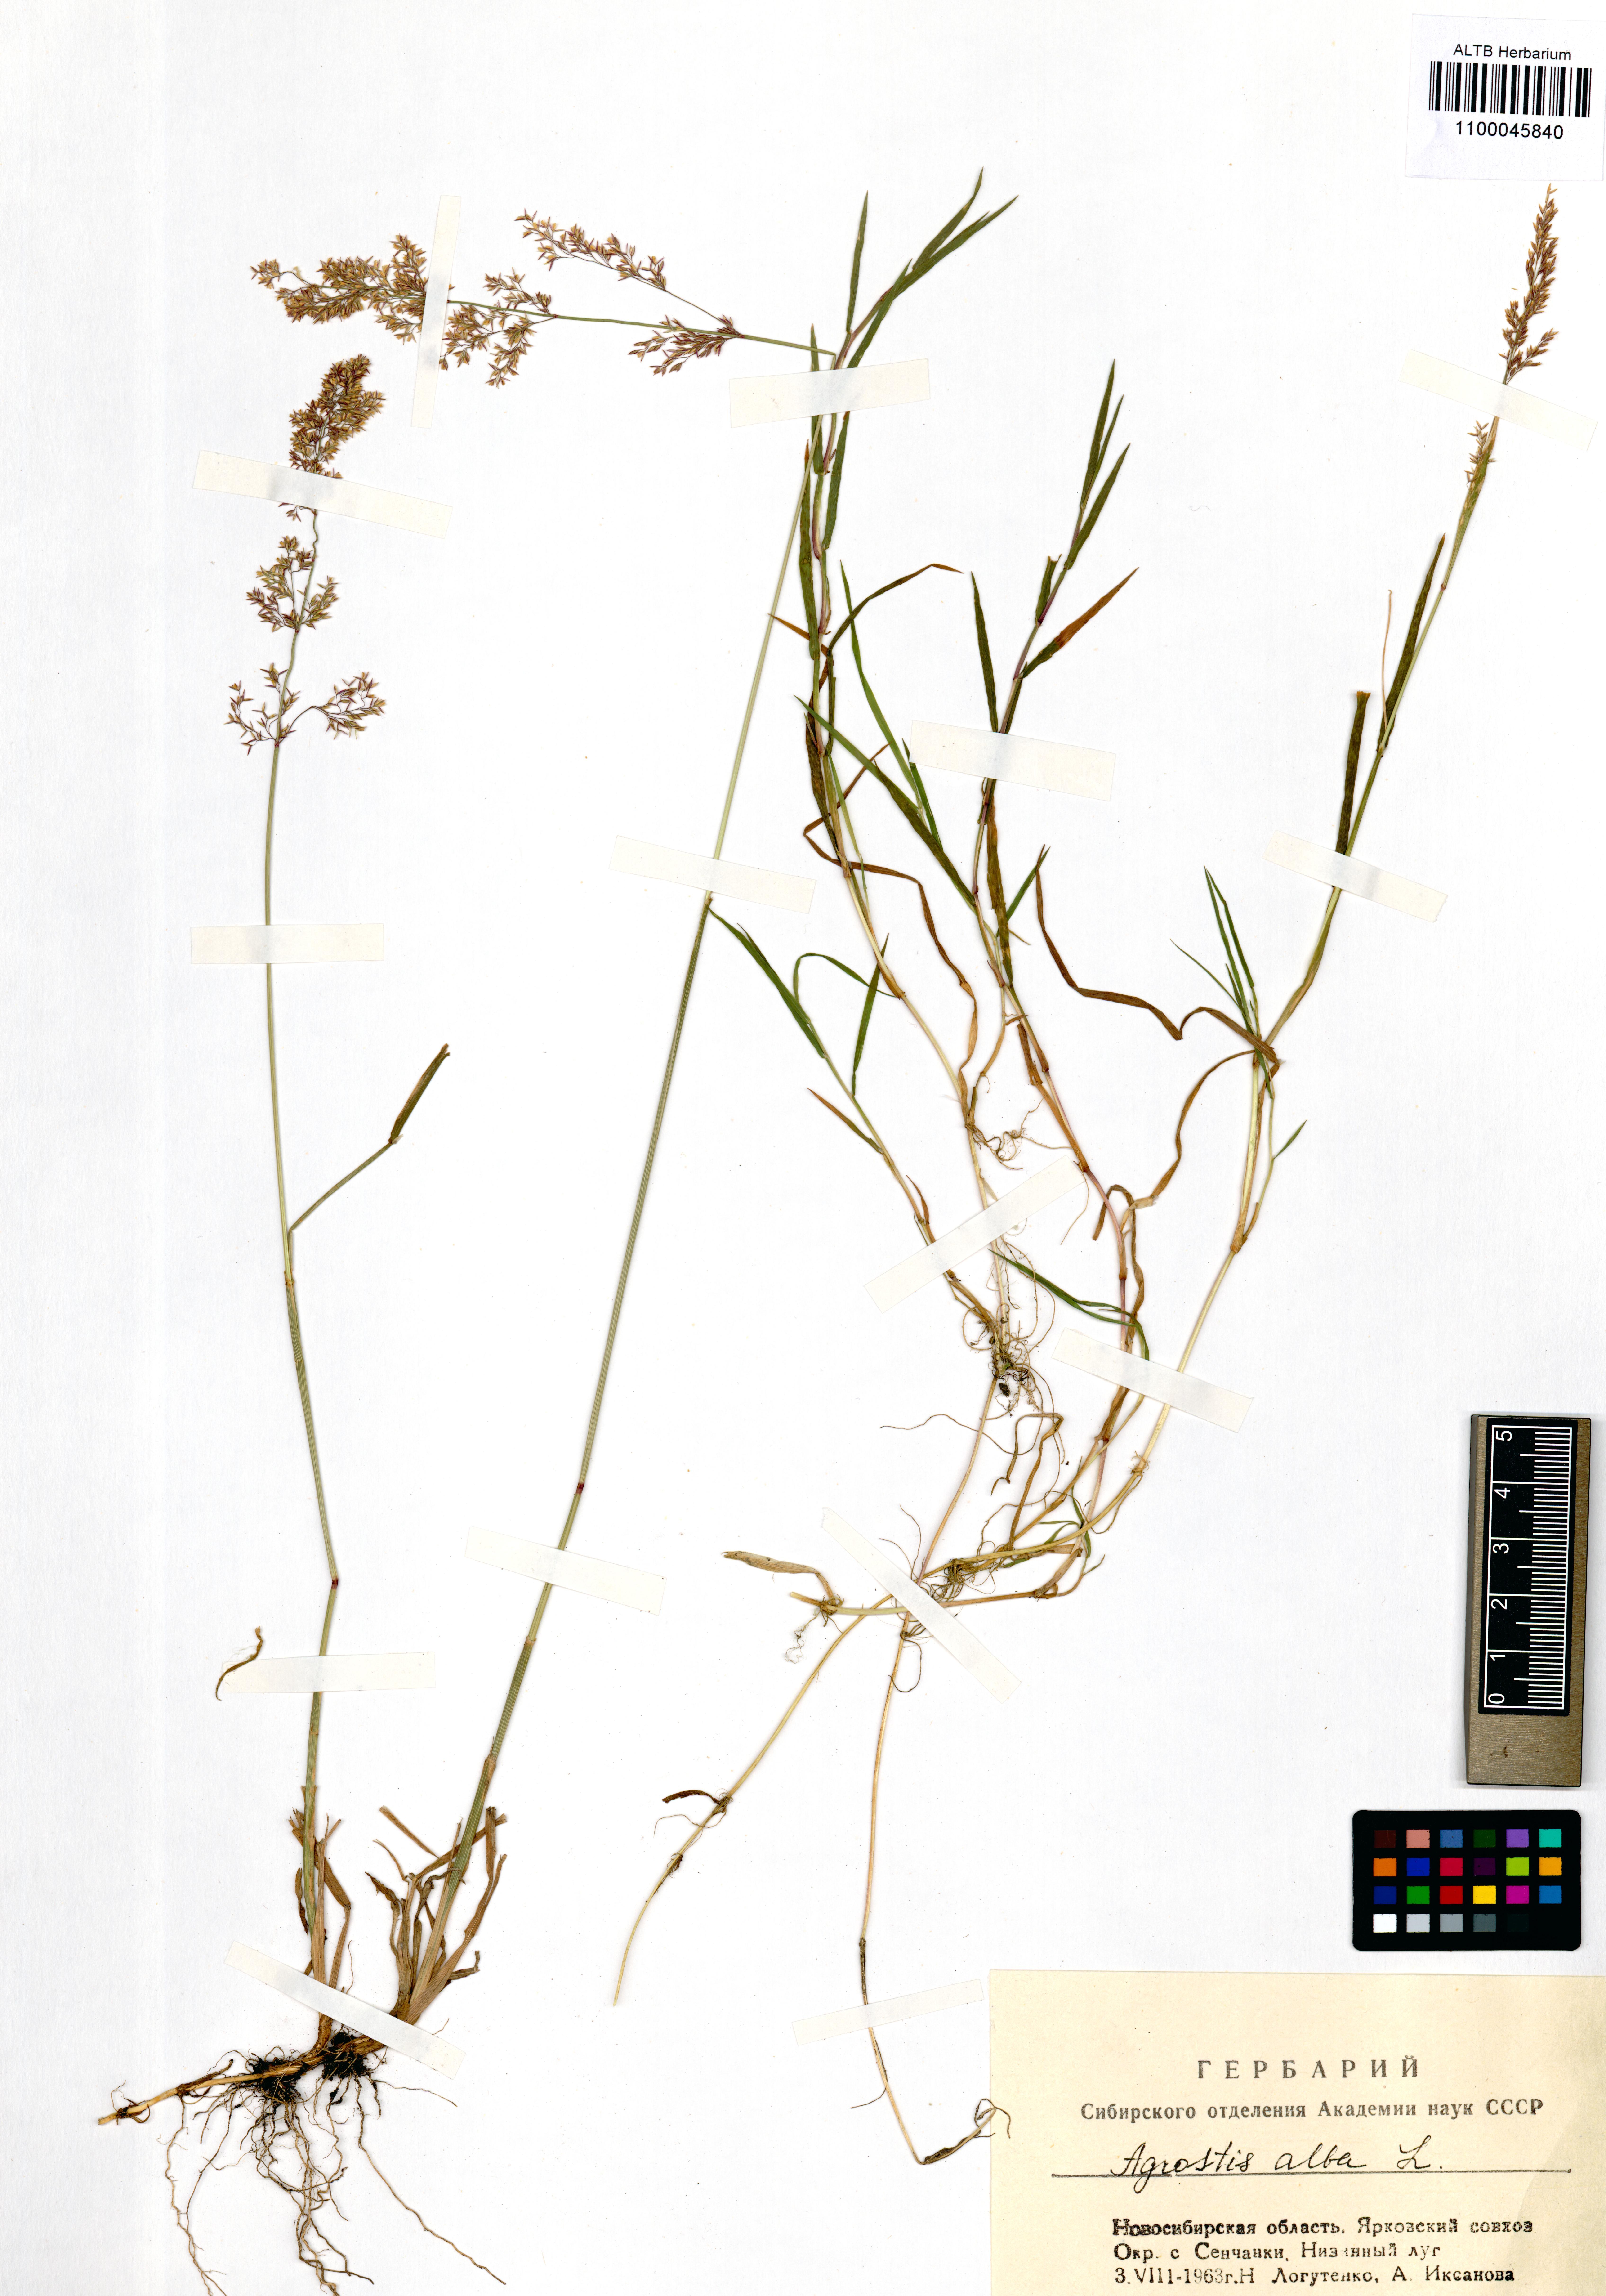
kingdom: Plantae
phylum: Tracheophyta
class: Liliopsida
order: Poales
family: Poaceae
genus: Agrostis
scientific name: Agrostis gigantea
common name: Black bent
